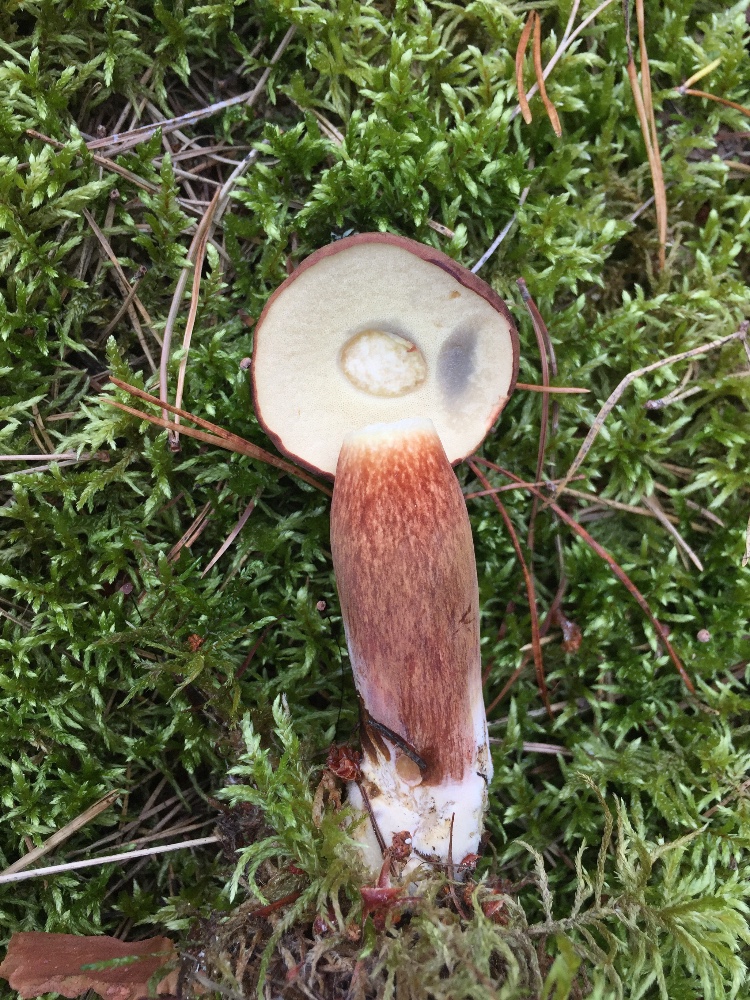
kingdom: Fungi
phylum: Basidiomycota
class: Agaricomycetes
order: Boletales
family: Boletaceae
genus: Imleria
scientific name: Imleria badia
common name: brunstokket rørhat
